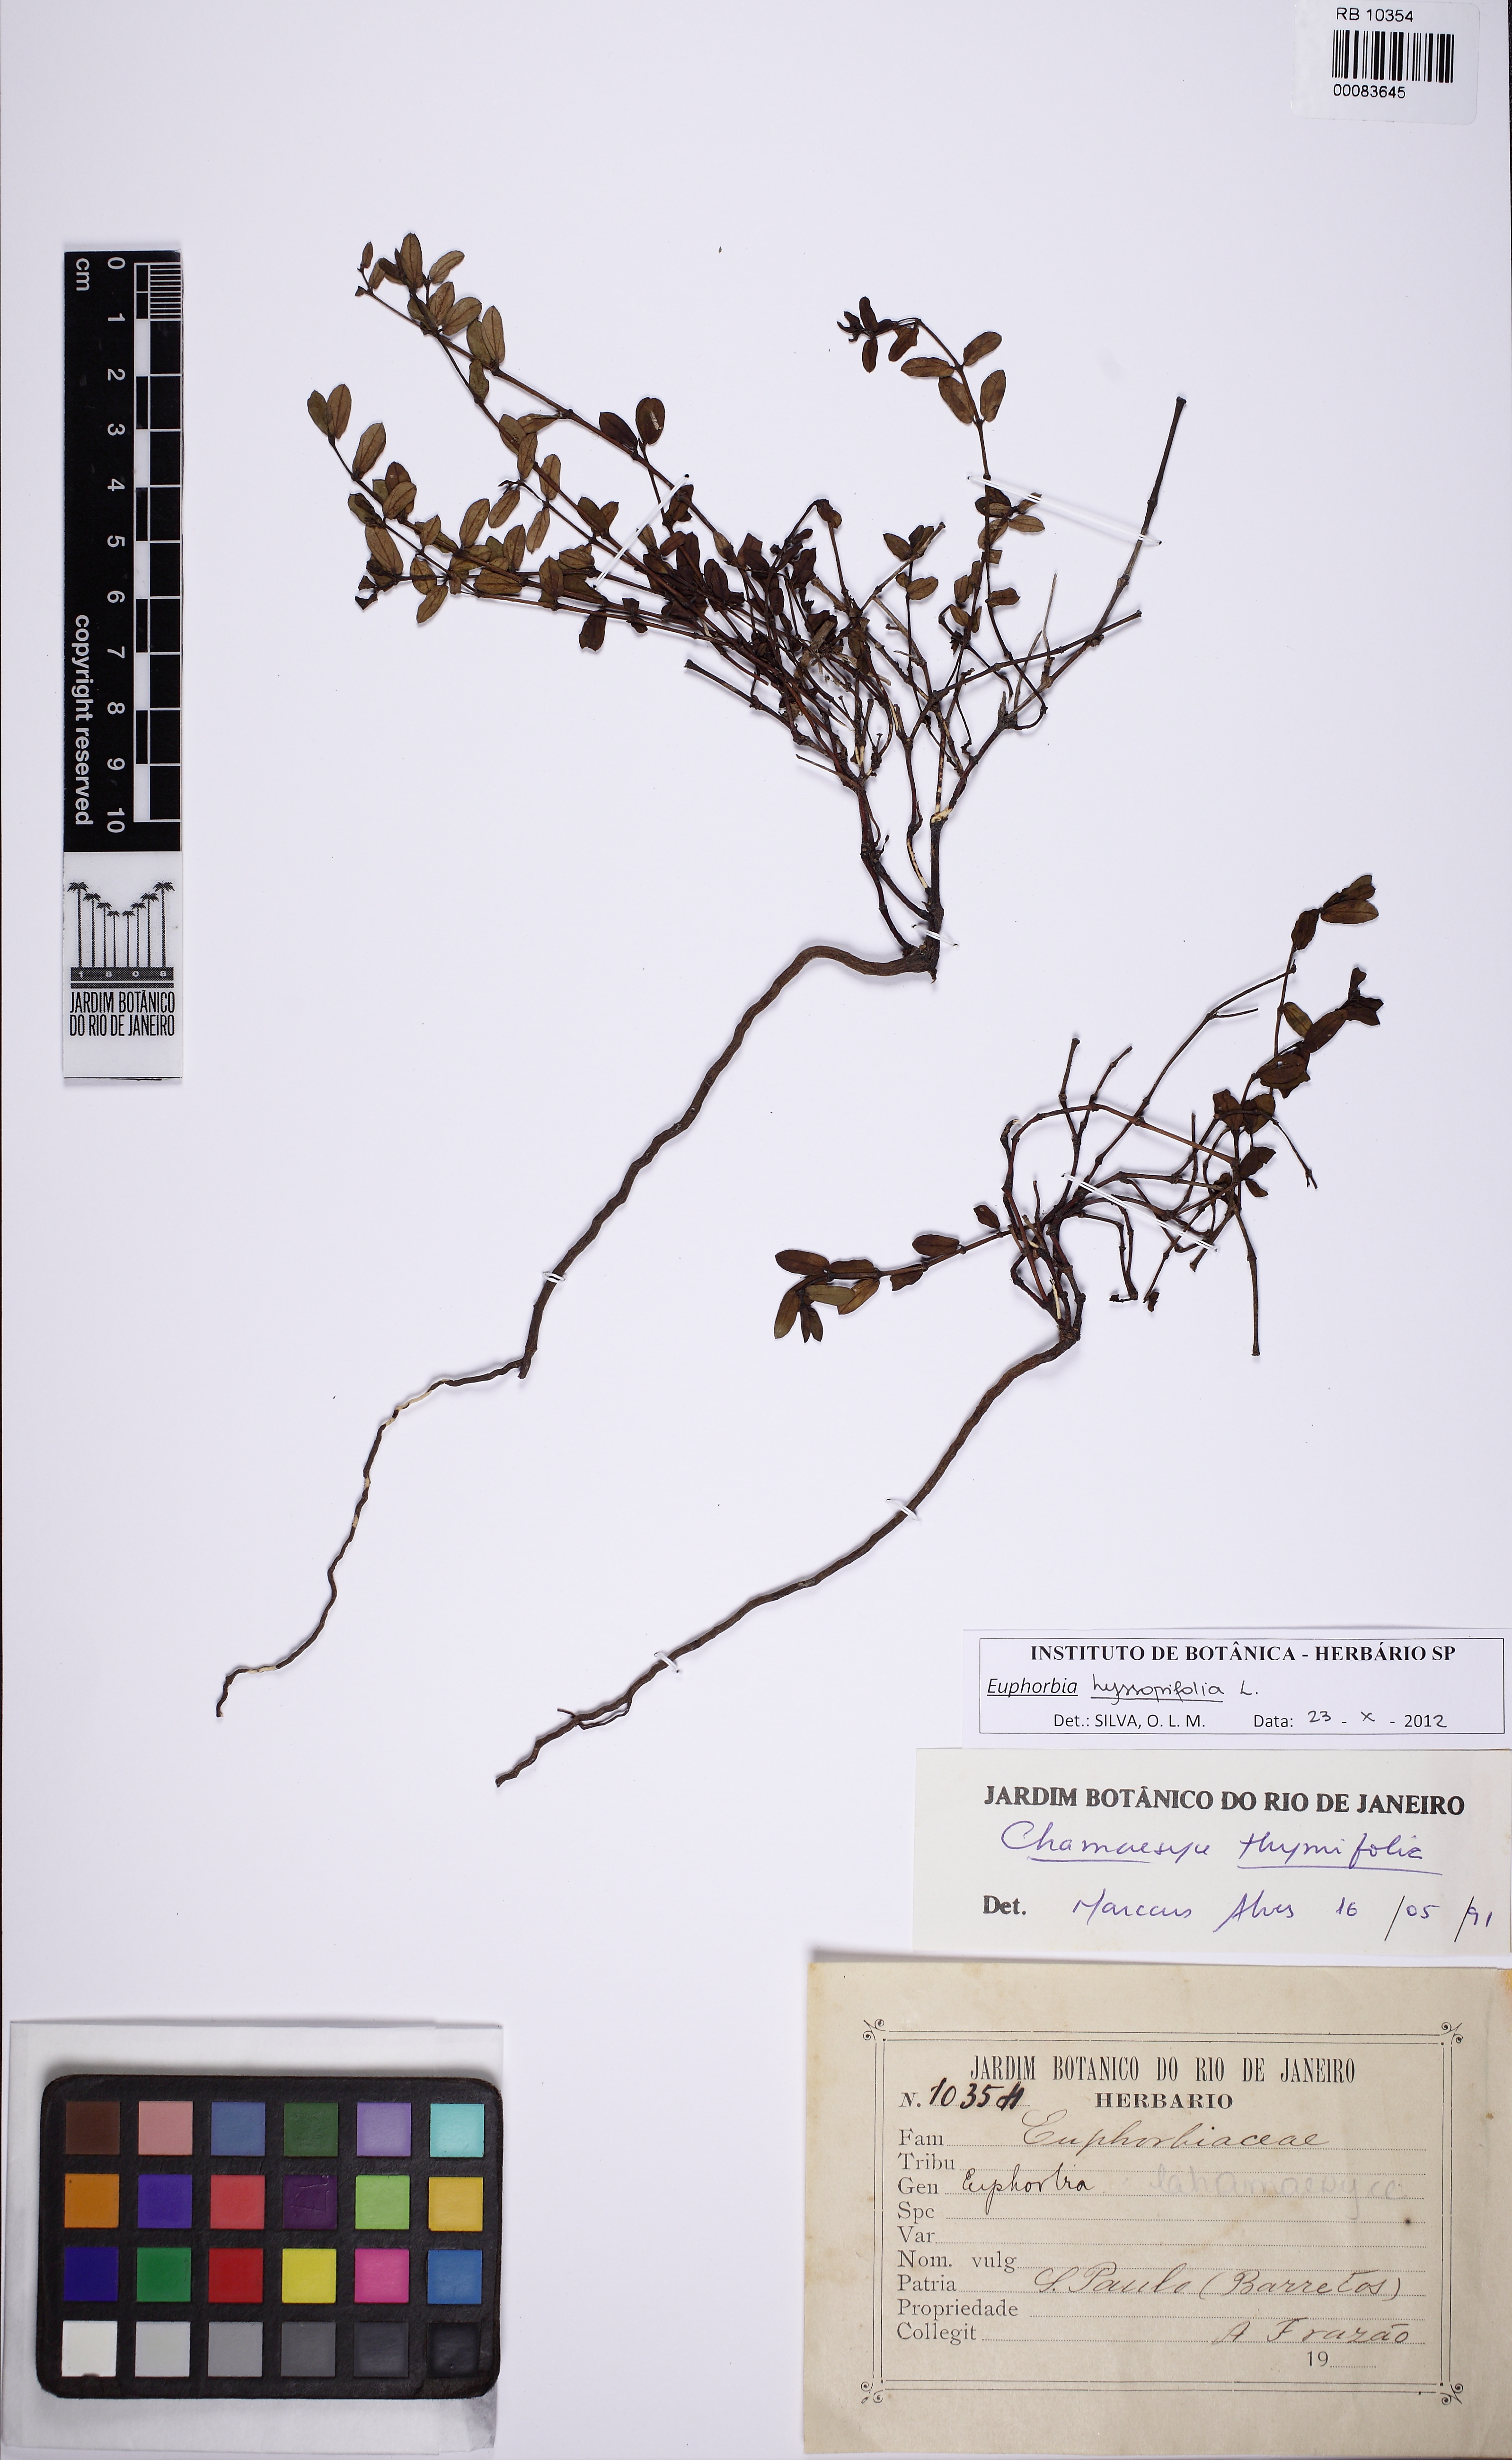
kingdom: Plantae
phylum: Tracheophyta
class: Magnoliopsida
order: Malpighiales
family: Euphorbiaceae
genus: Euphorbia
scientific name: Euphorbia hyssopifolia
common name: Hyssopleaf sandmat
